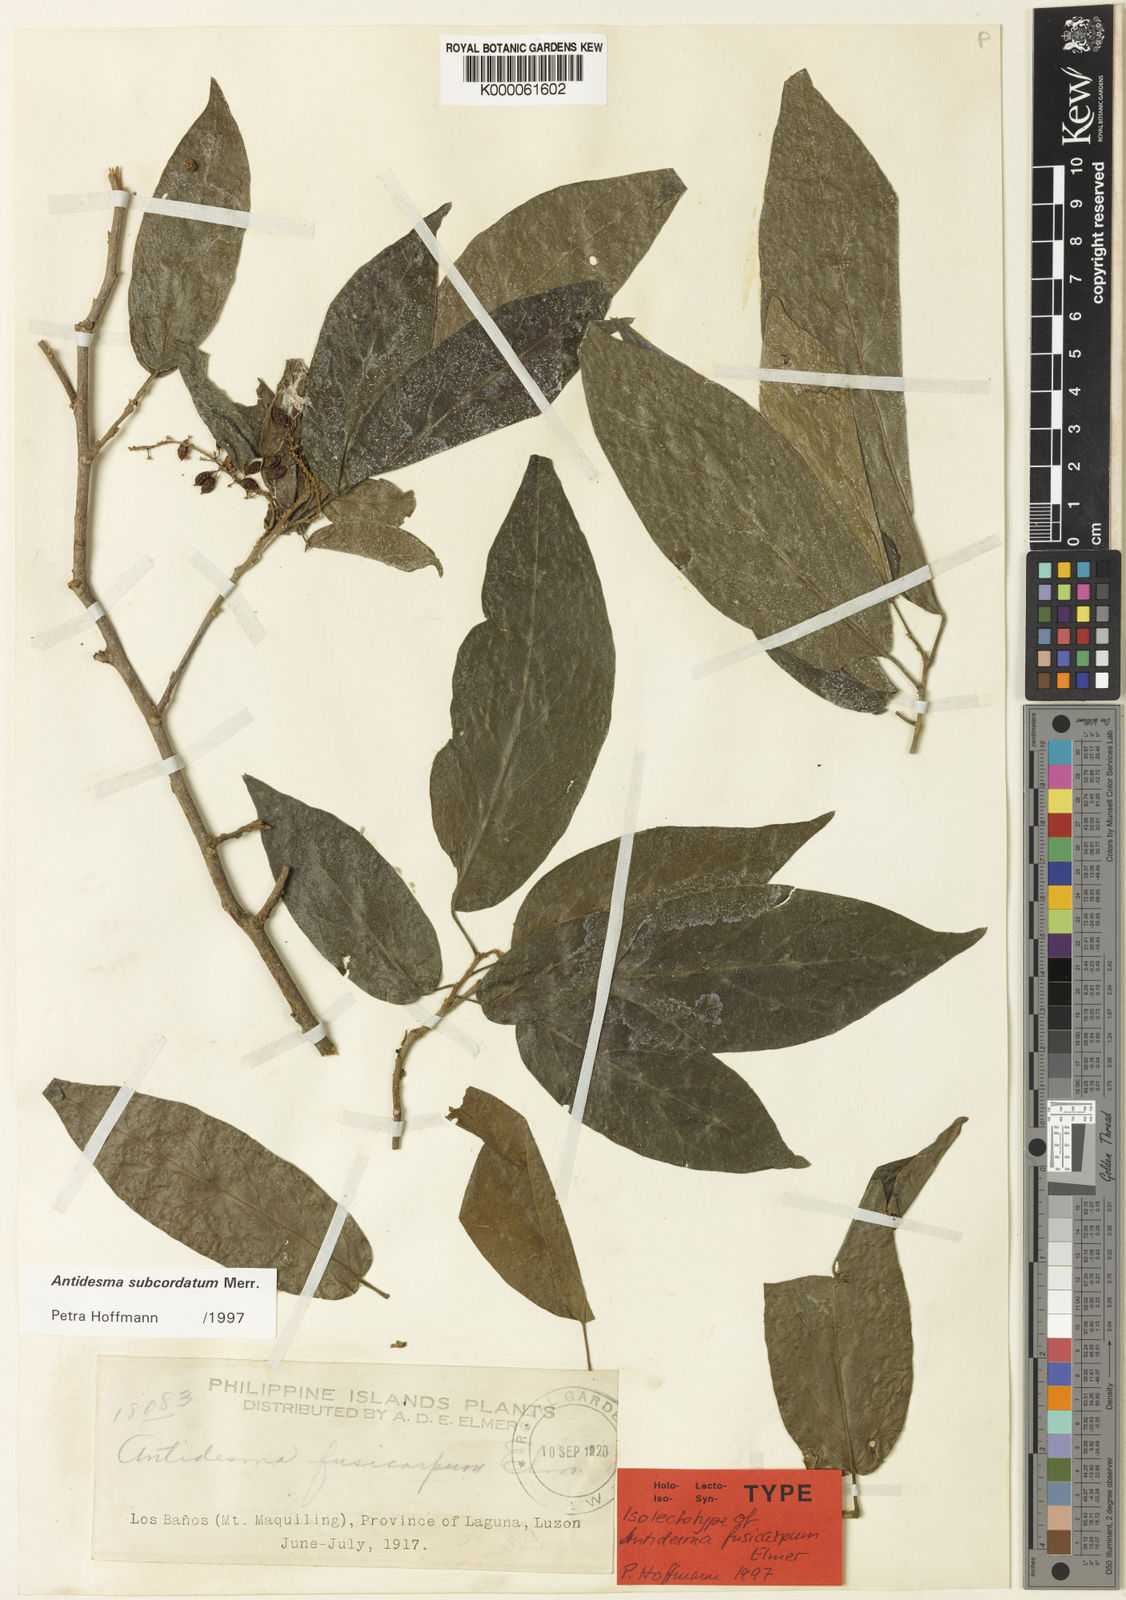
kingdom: Plantae
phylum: Tracheophyta
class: Magnoliopsida
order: Malpighiales
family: Phyllanthaceae
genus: Antidesma
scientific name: Antidesma subcordatum
